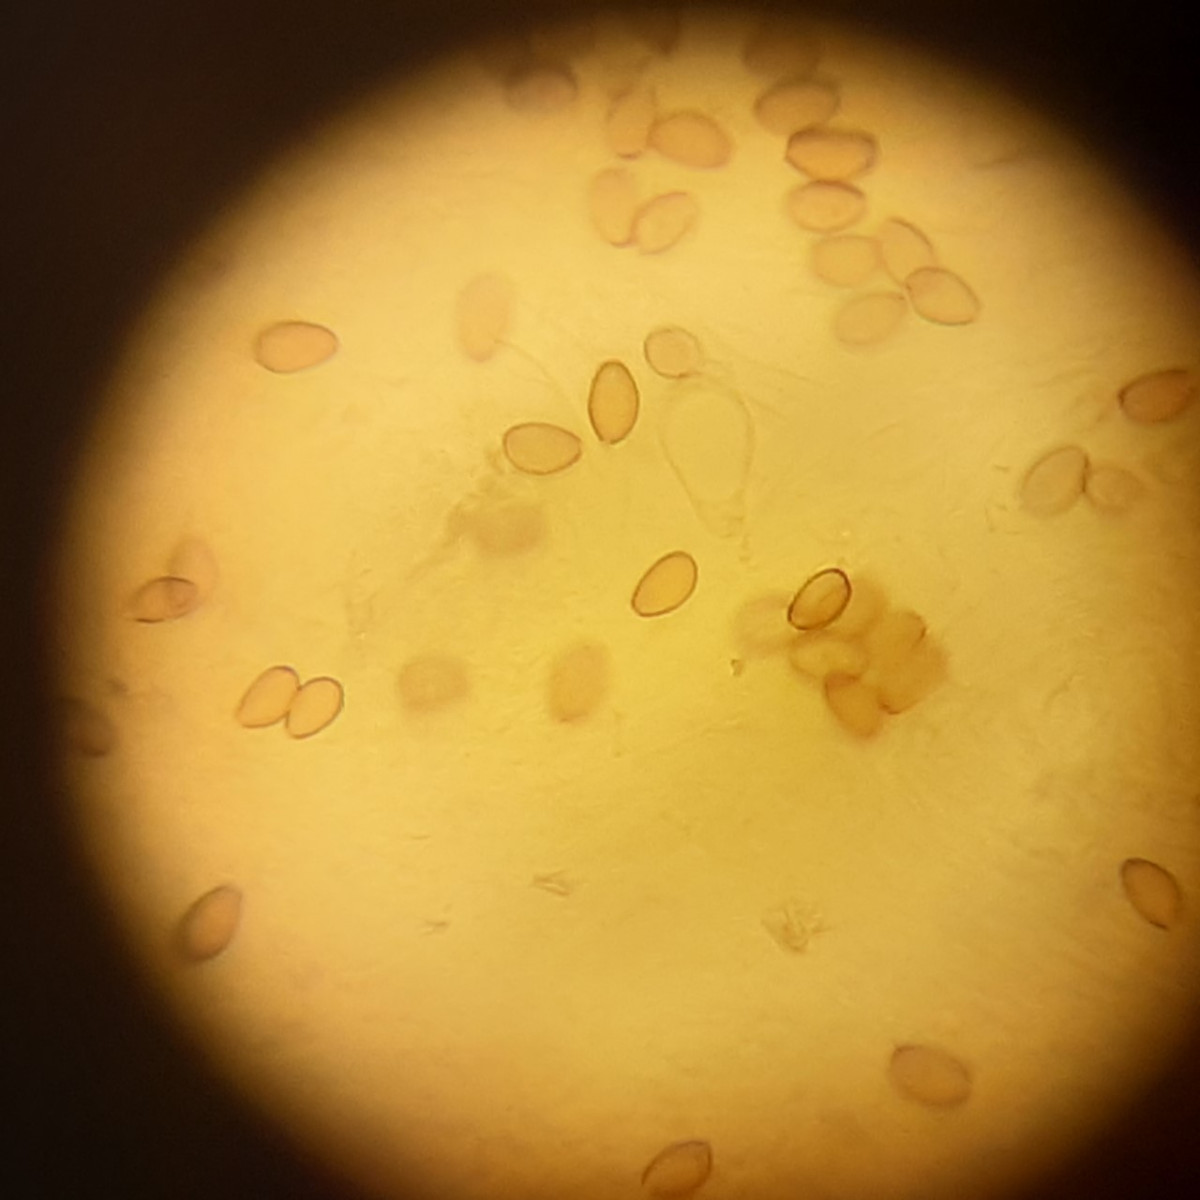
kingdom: Fungi
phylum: Basidiomycota
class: Agaricomycetes
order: Agaricales
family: Hymenogastraceae
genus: Psilocybe
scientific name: Psilocybe coronilla
